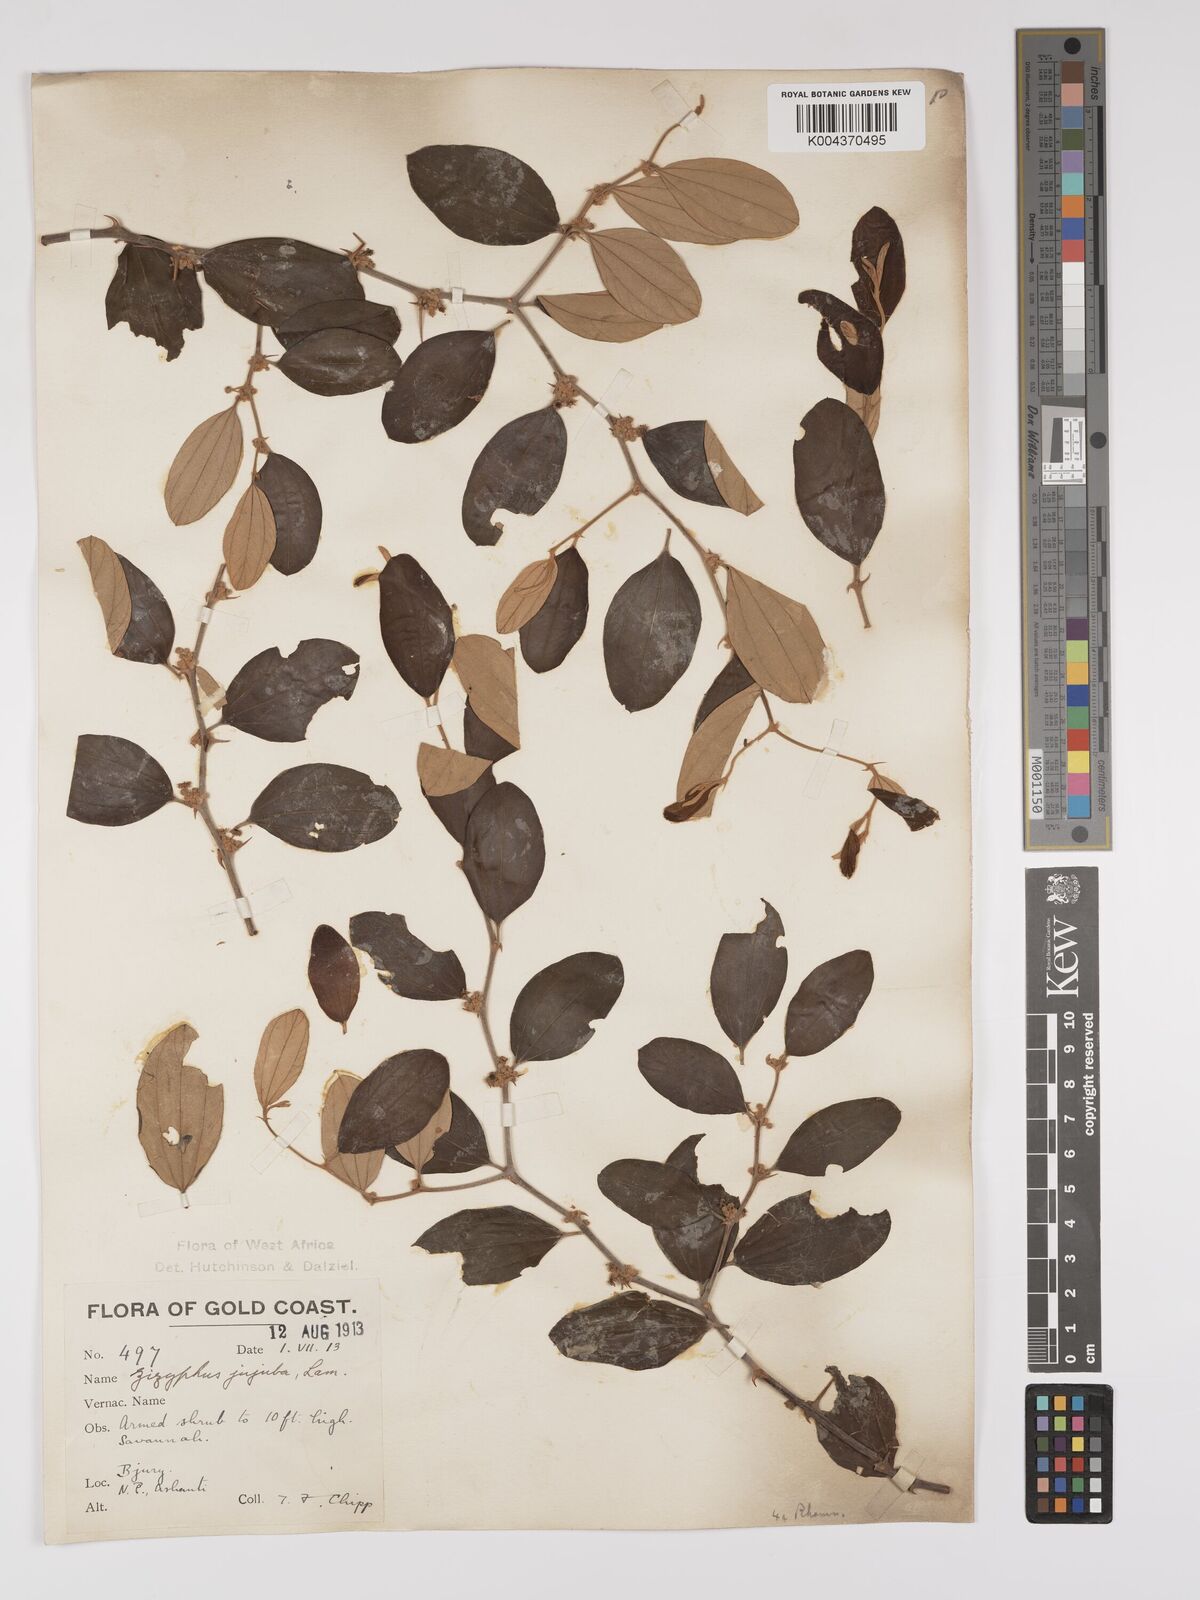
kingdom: Plantae
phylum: Tracheophyta
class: Magnoliopsida
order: Rosales
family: Rhamnaceae
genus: Ziziphus
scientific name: Ziziphus mauritiana
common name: Indian jujube
